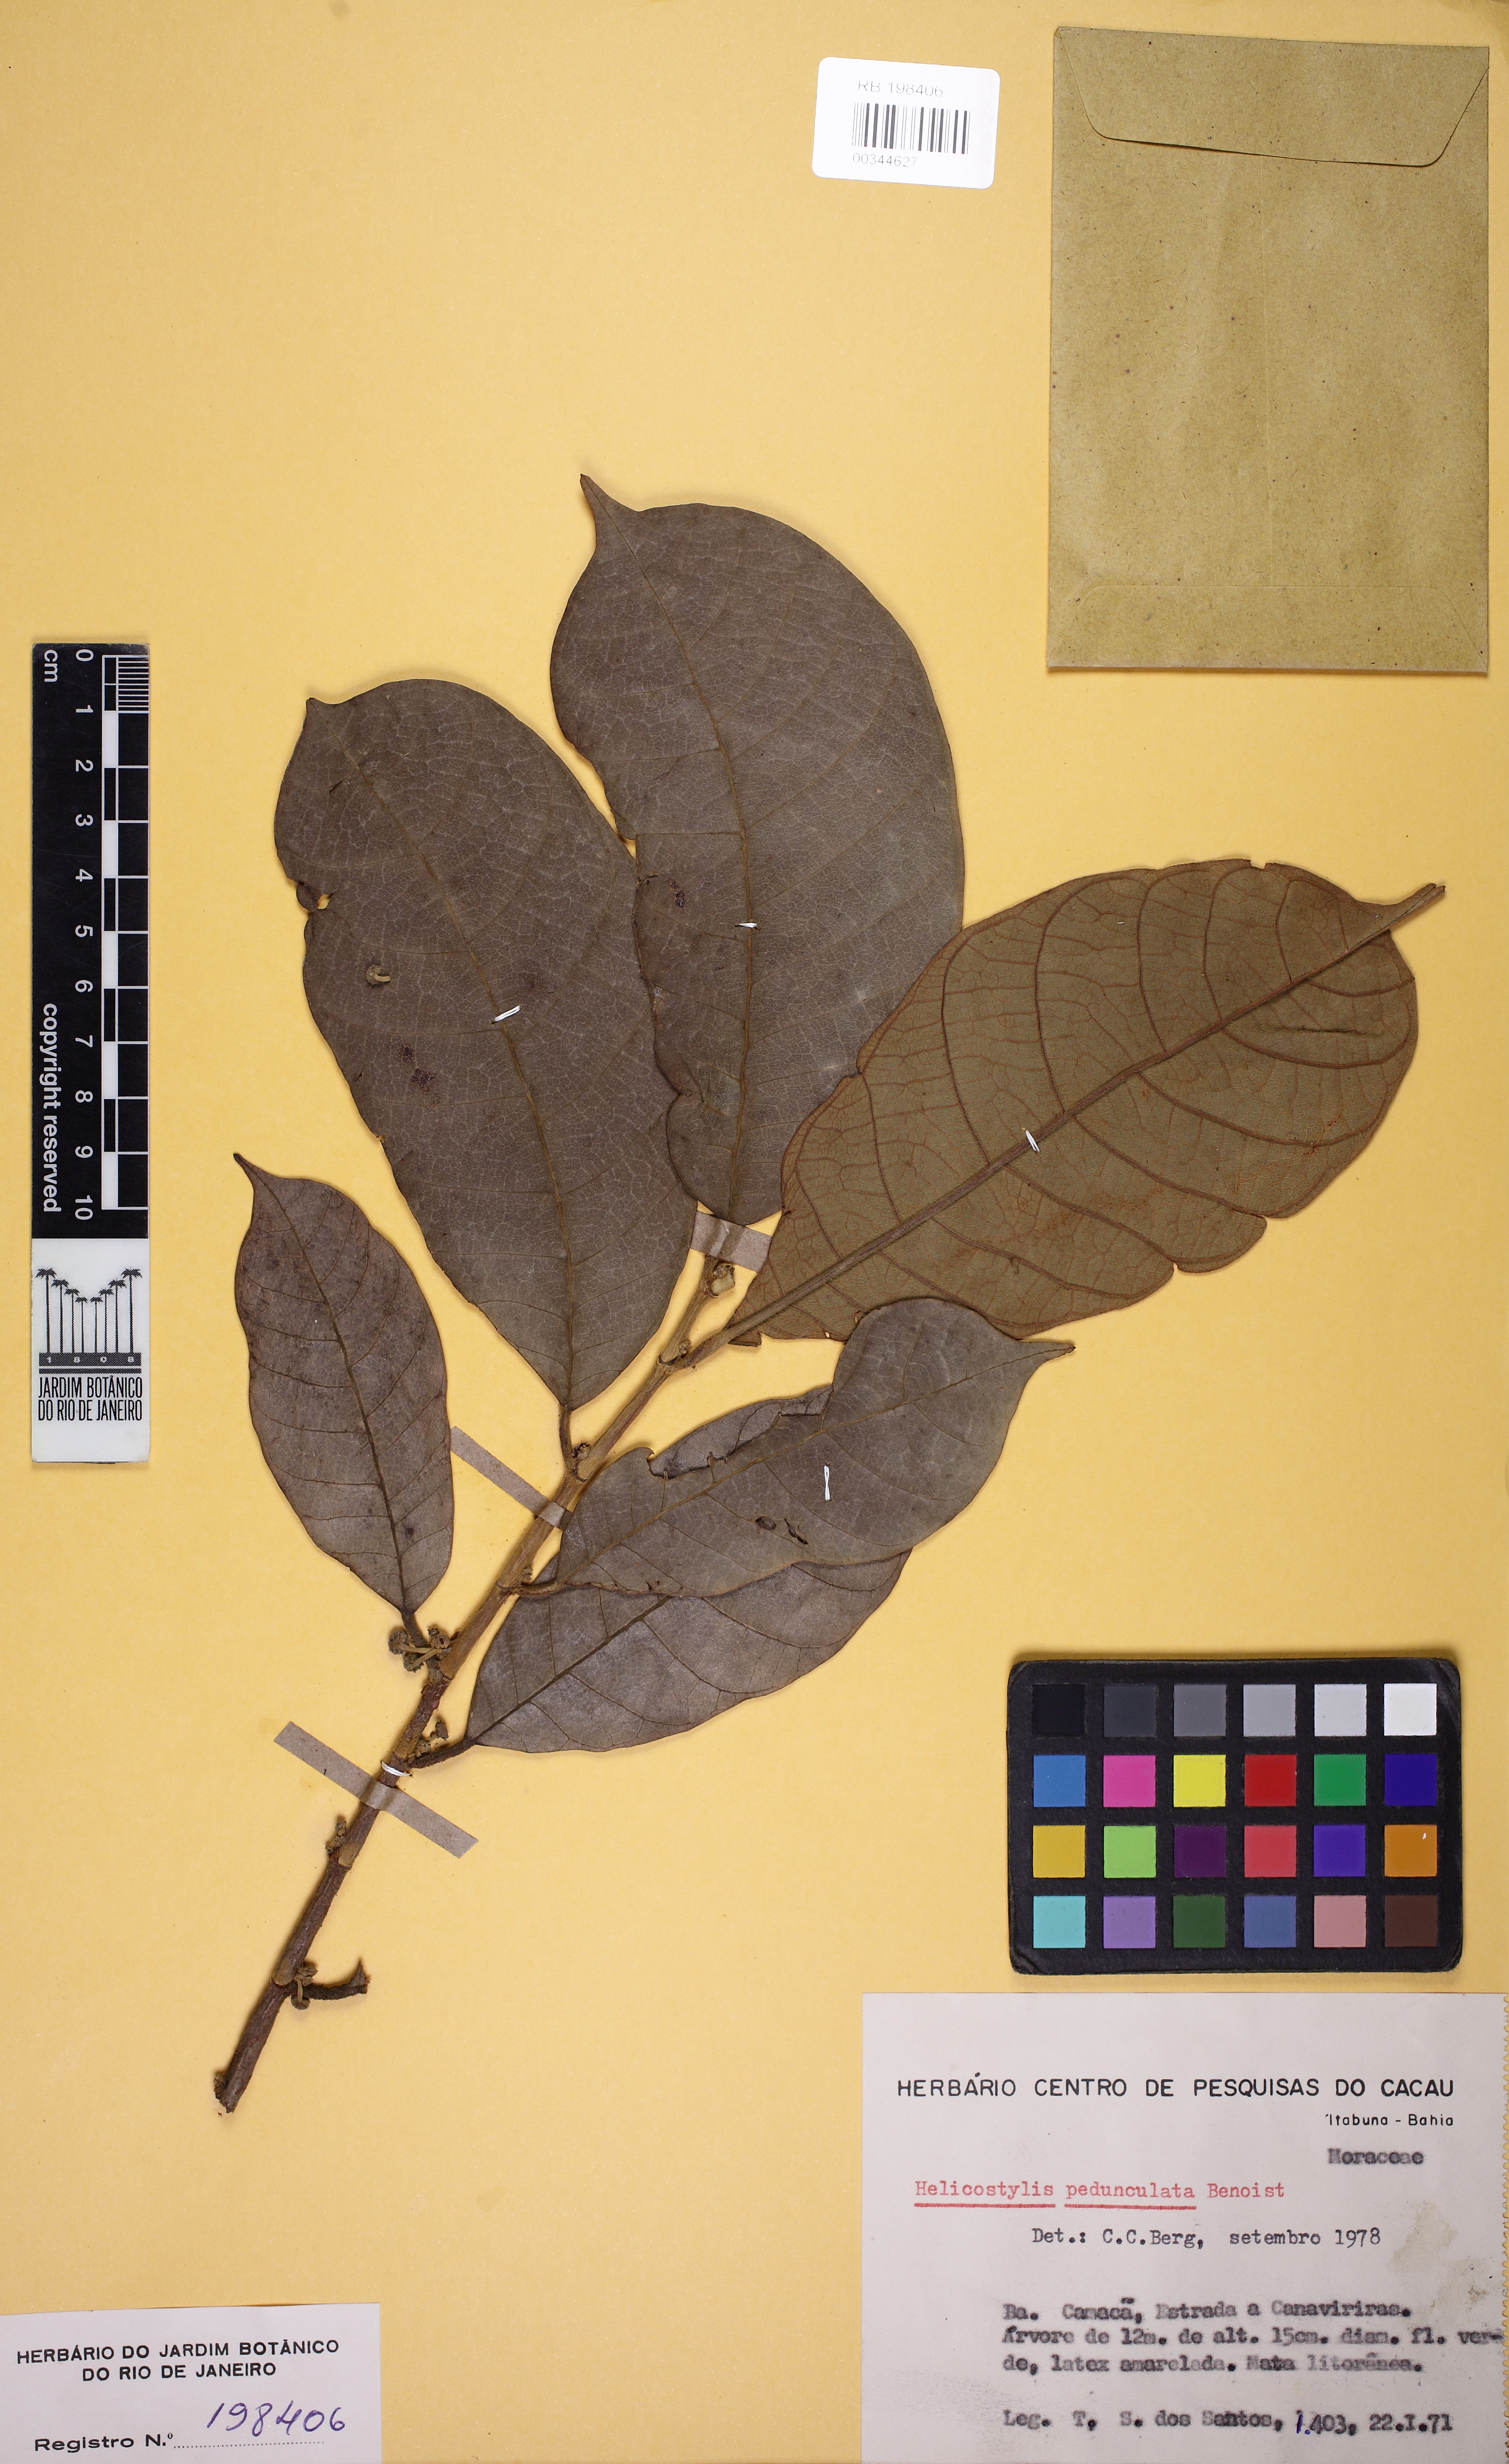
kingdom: Plantae
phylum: Tracheophyta
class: Magnoliopsida
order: Rosales
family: Moraceae
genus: Helicostylis
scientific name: Helicostylis pedunculata
